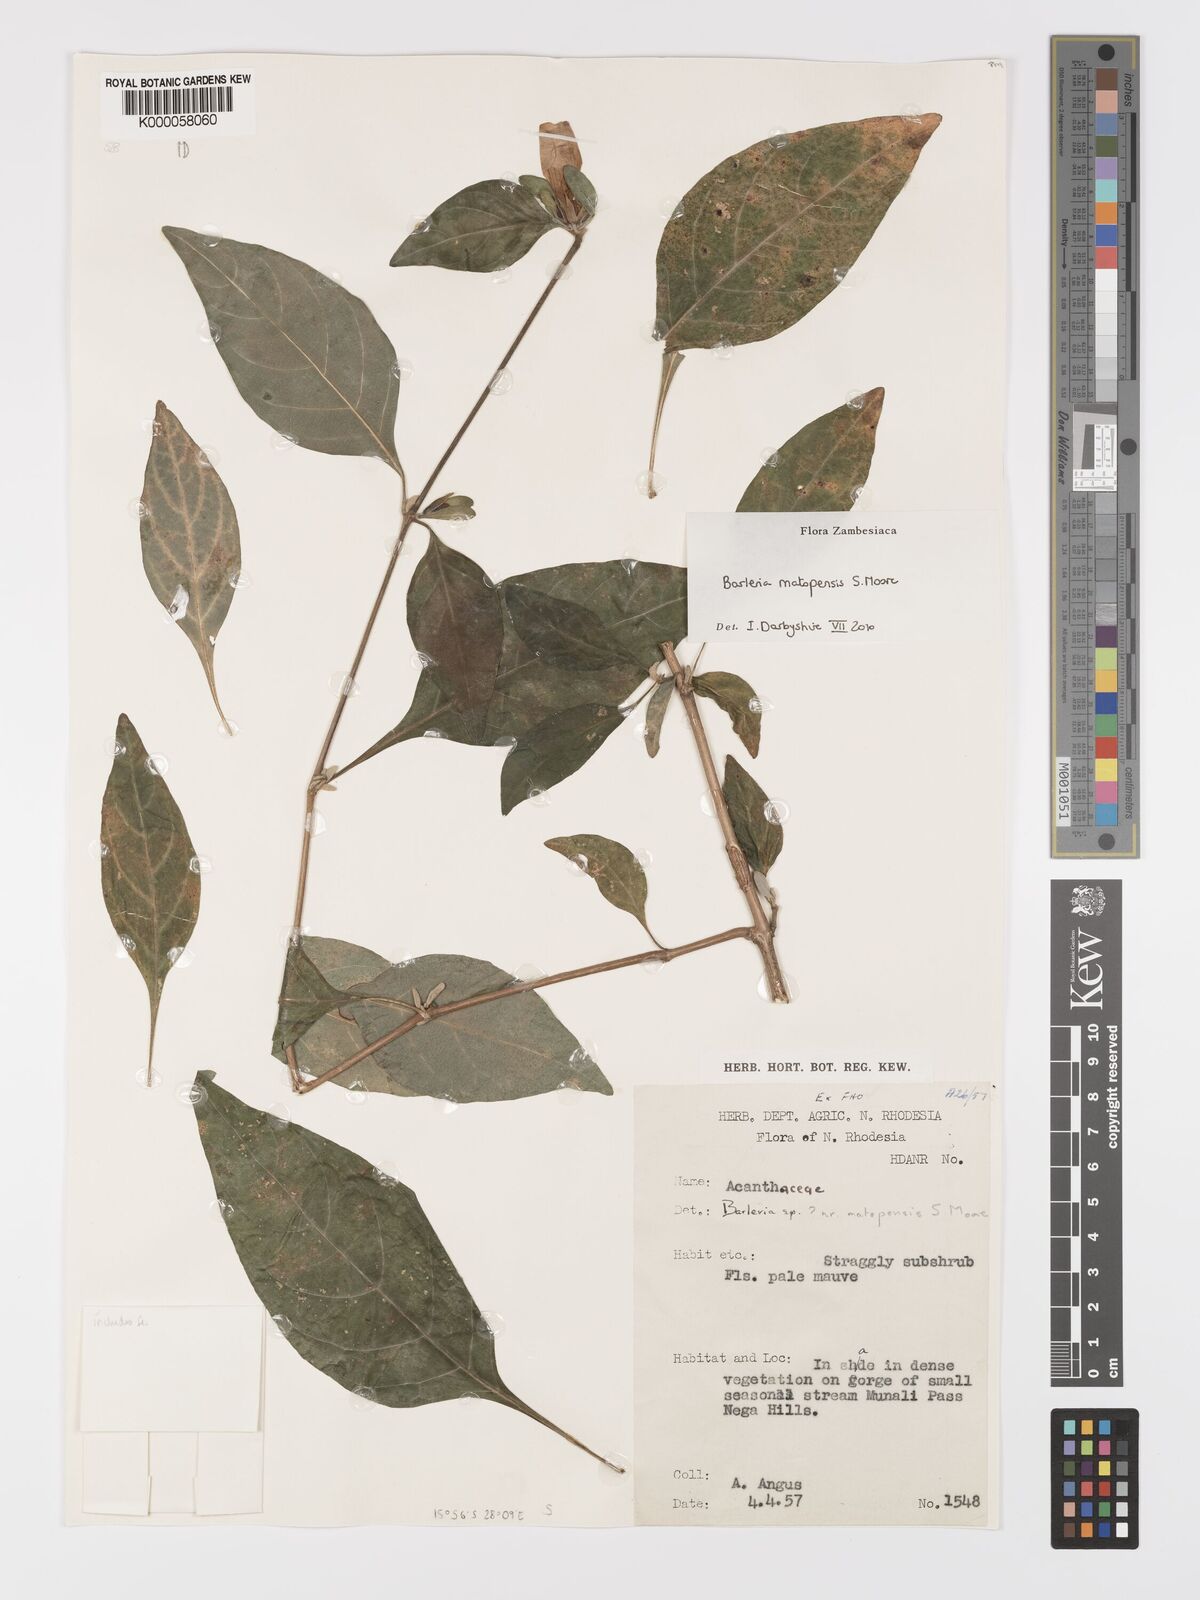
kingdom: Plantae
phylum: Tracheophyta
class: Magnoliopsida
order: Lamiales
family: Acanthaceae
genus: Barleria
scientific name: Barleria matopensis
